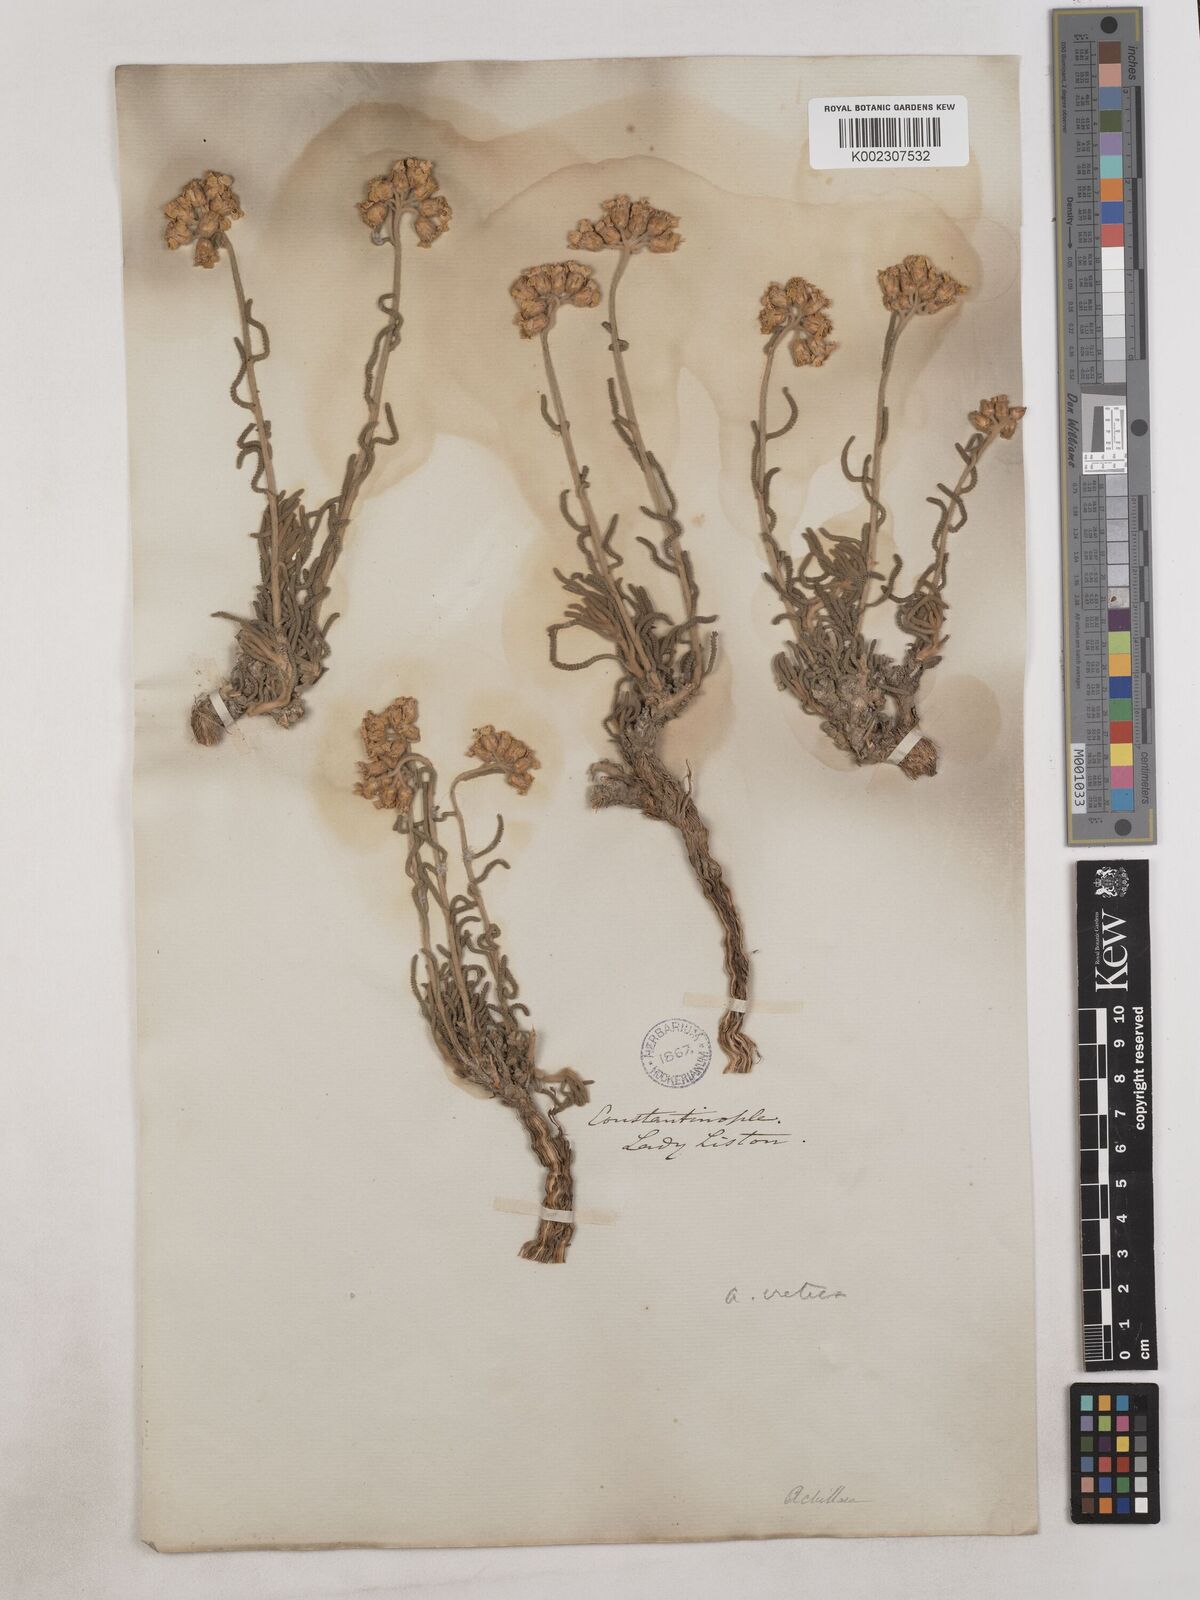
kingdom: Plantae
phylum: Tracheophyta
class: Magnoliopsida
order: Asterales
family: Asteraceae
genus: Achillea
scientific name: Achillea cretica
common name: Chamomile-leaved lavender-cotton
